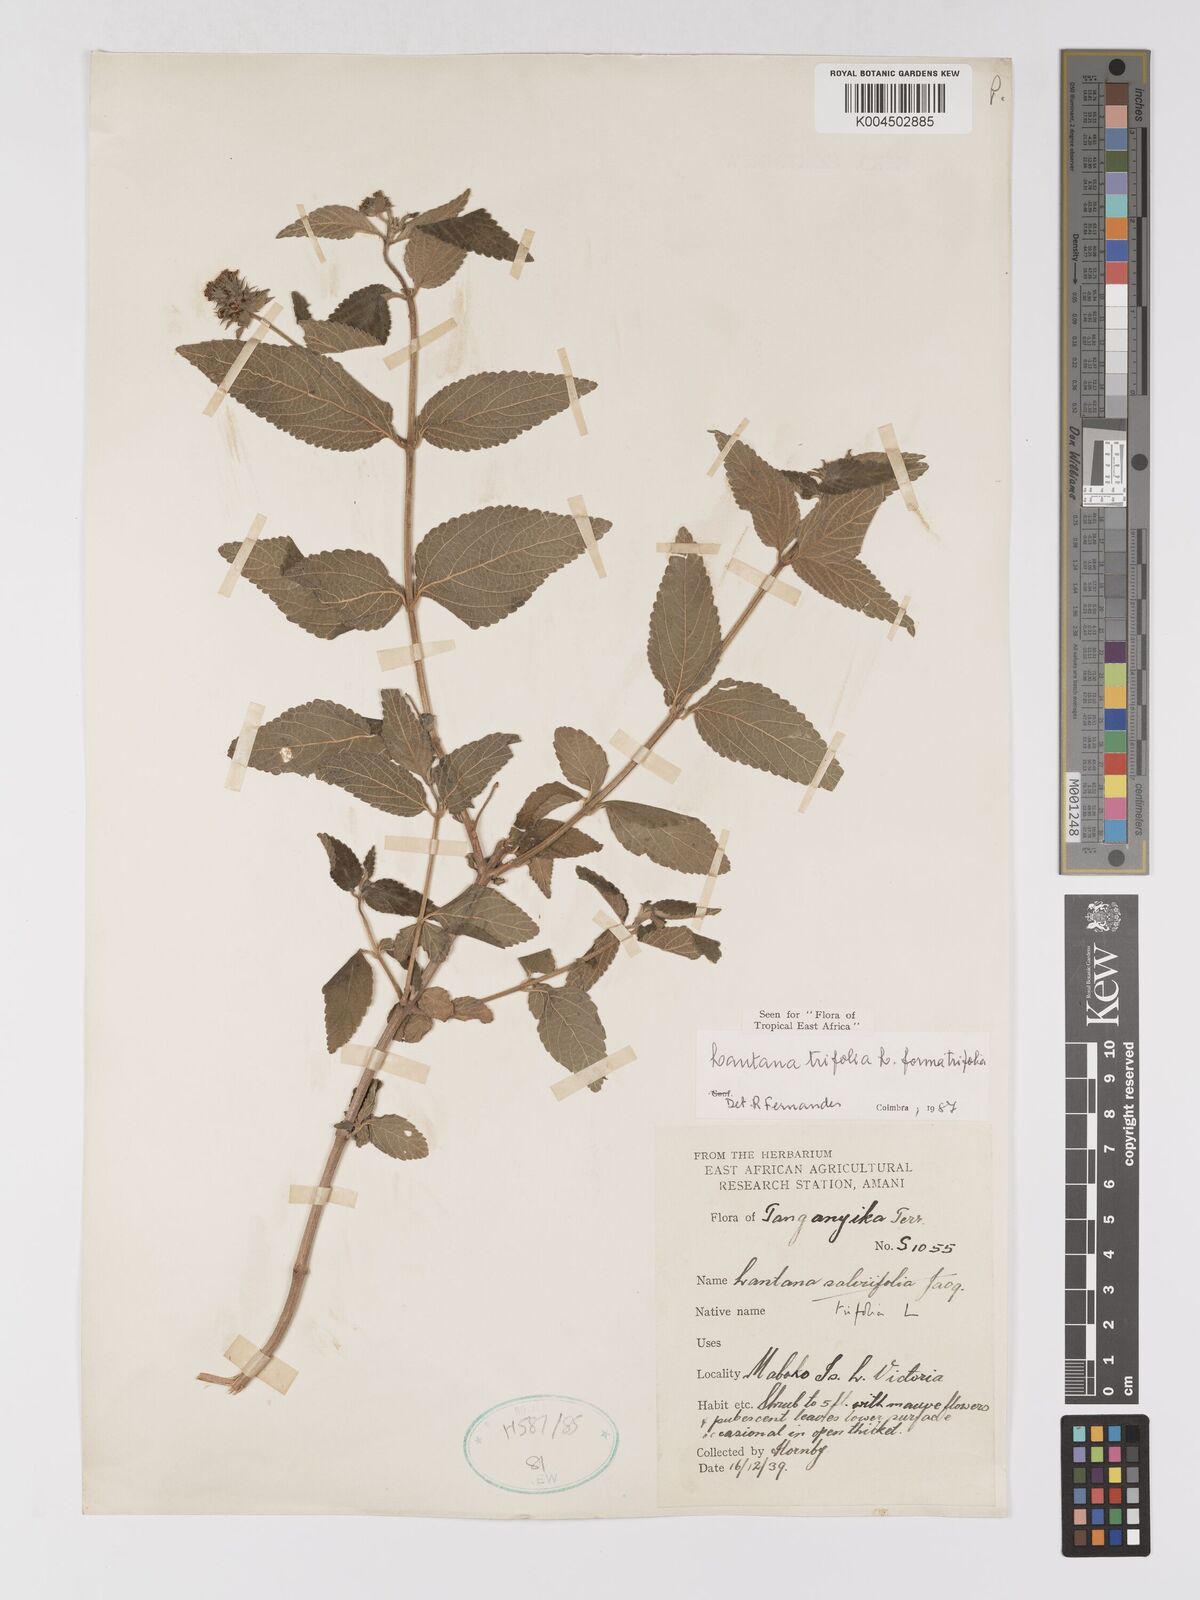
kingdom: Plantae
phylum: Tracheophyta
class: Magnoliopsida
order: Lamiales
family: Verbenaceae
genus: Lantana
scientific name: Lantana trifolia
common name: Sweet-sage
